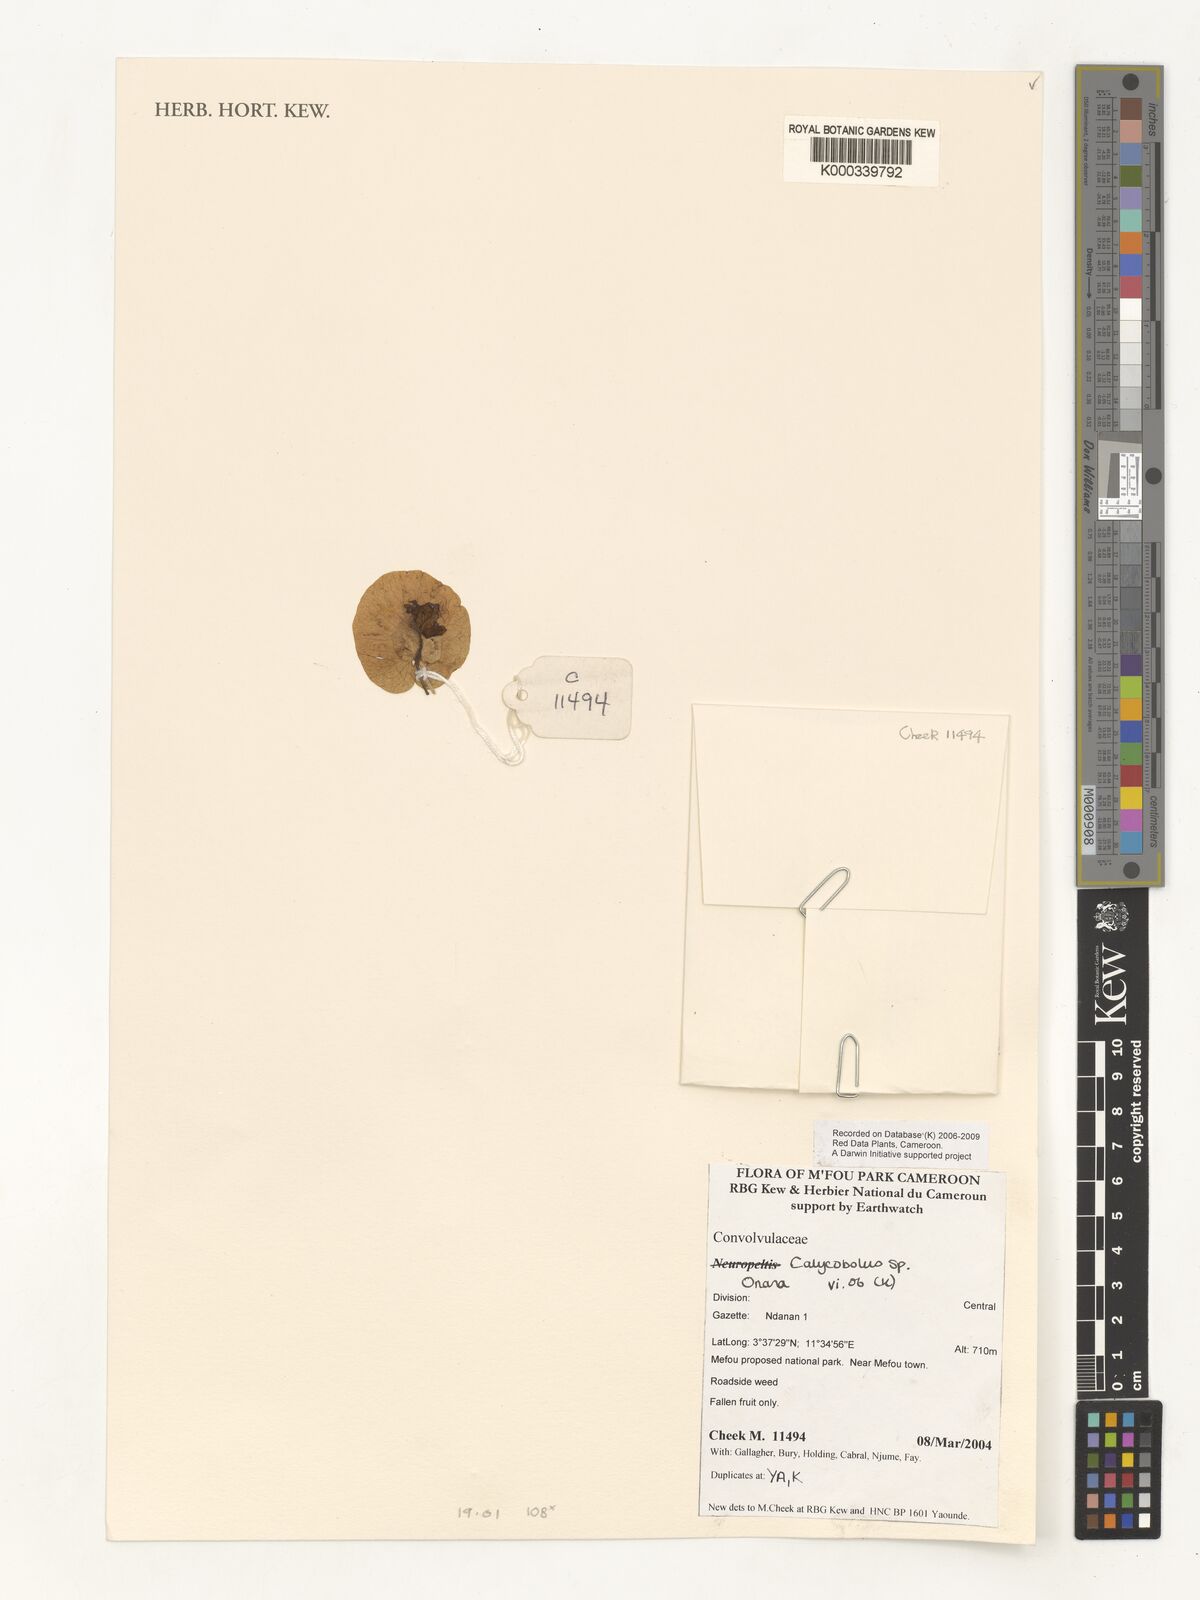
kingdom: Plantae
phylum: Tracheophyta
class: Magnoliopsida
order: Solanales
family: Convolvulaceae
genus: Calycobolus
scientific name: Calycobolus
